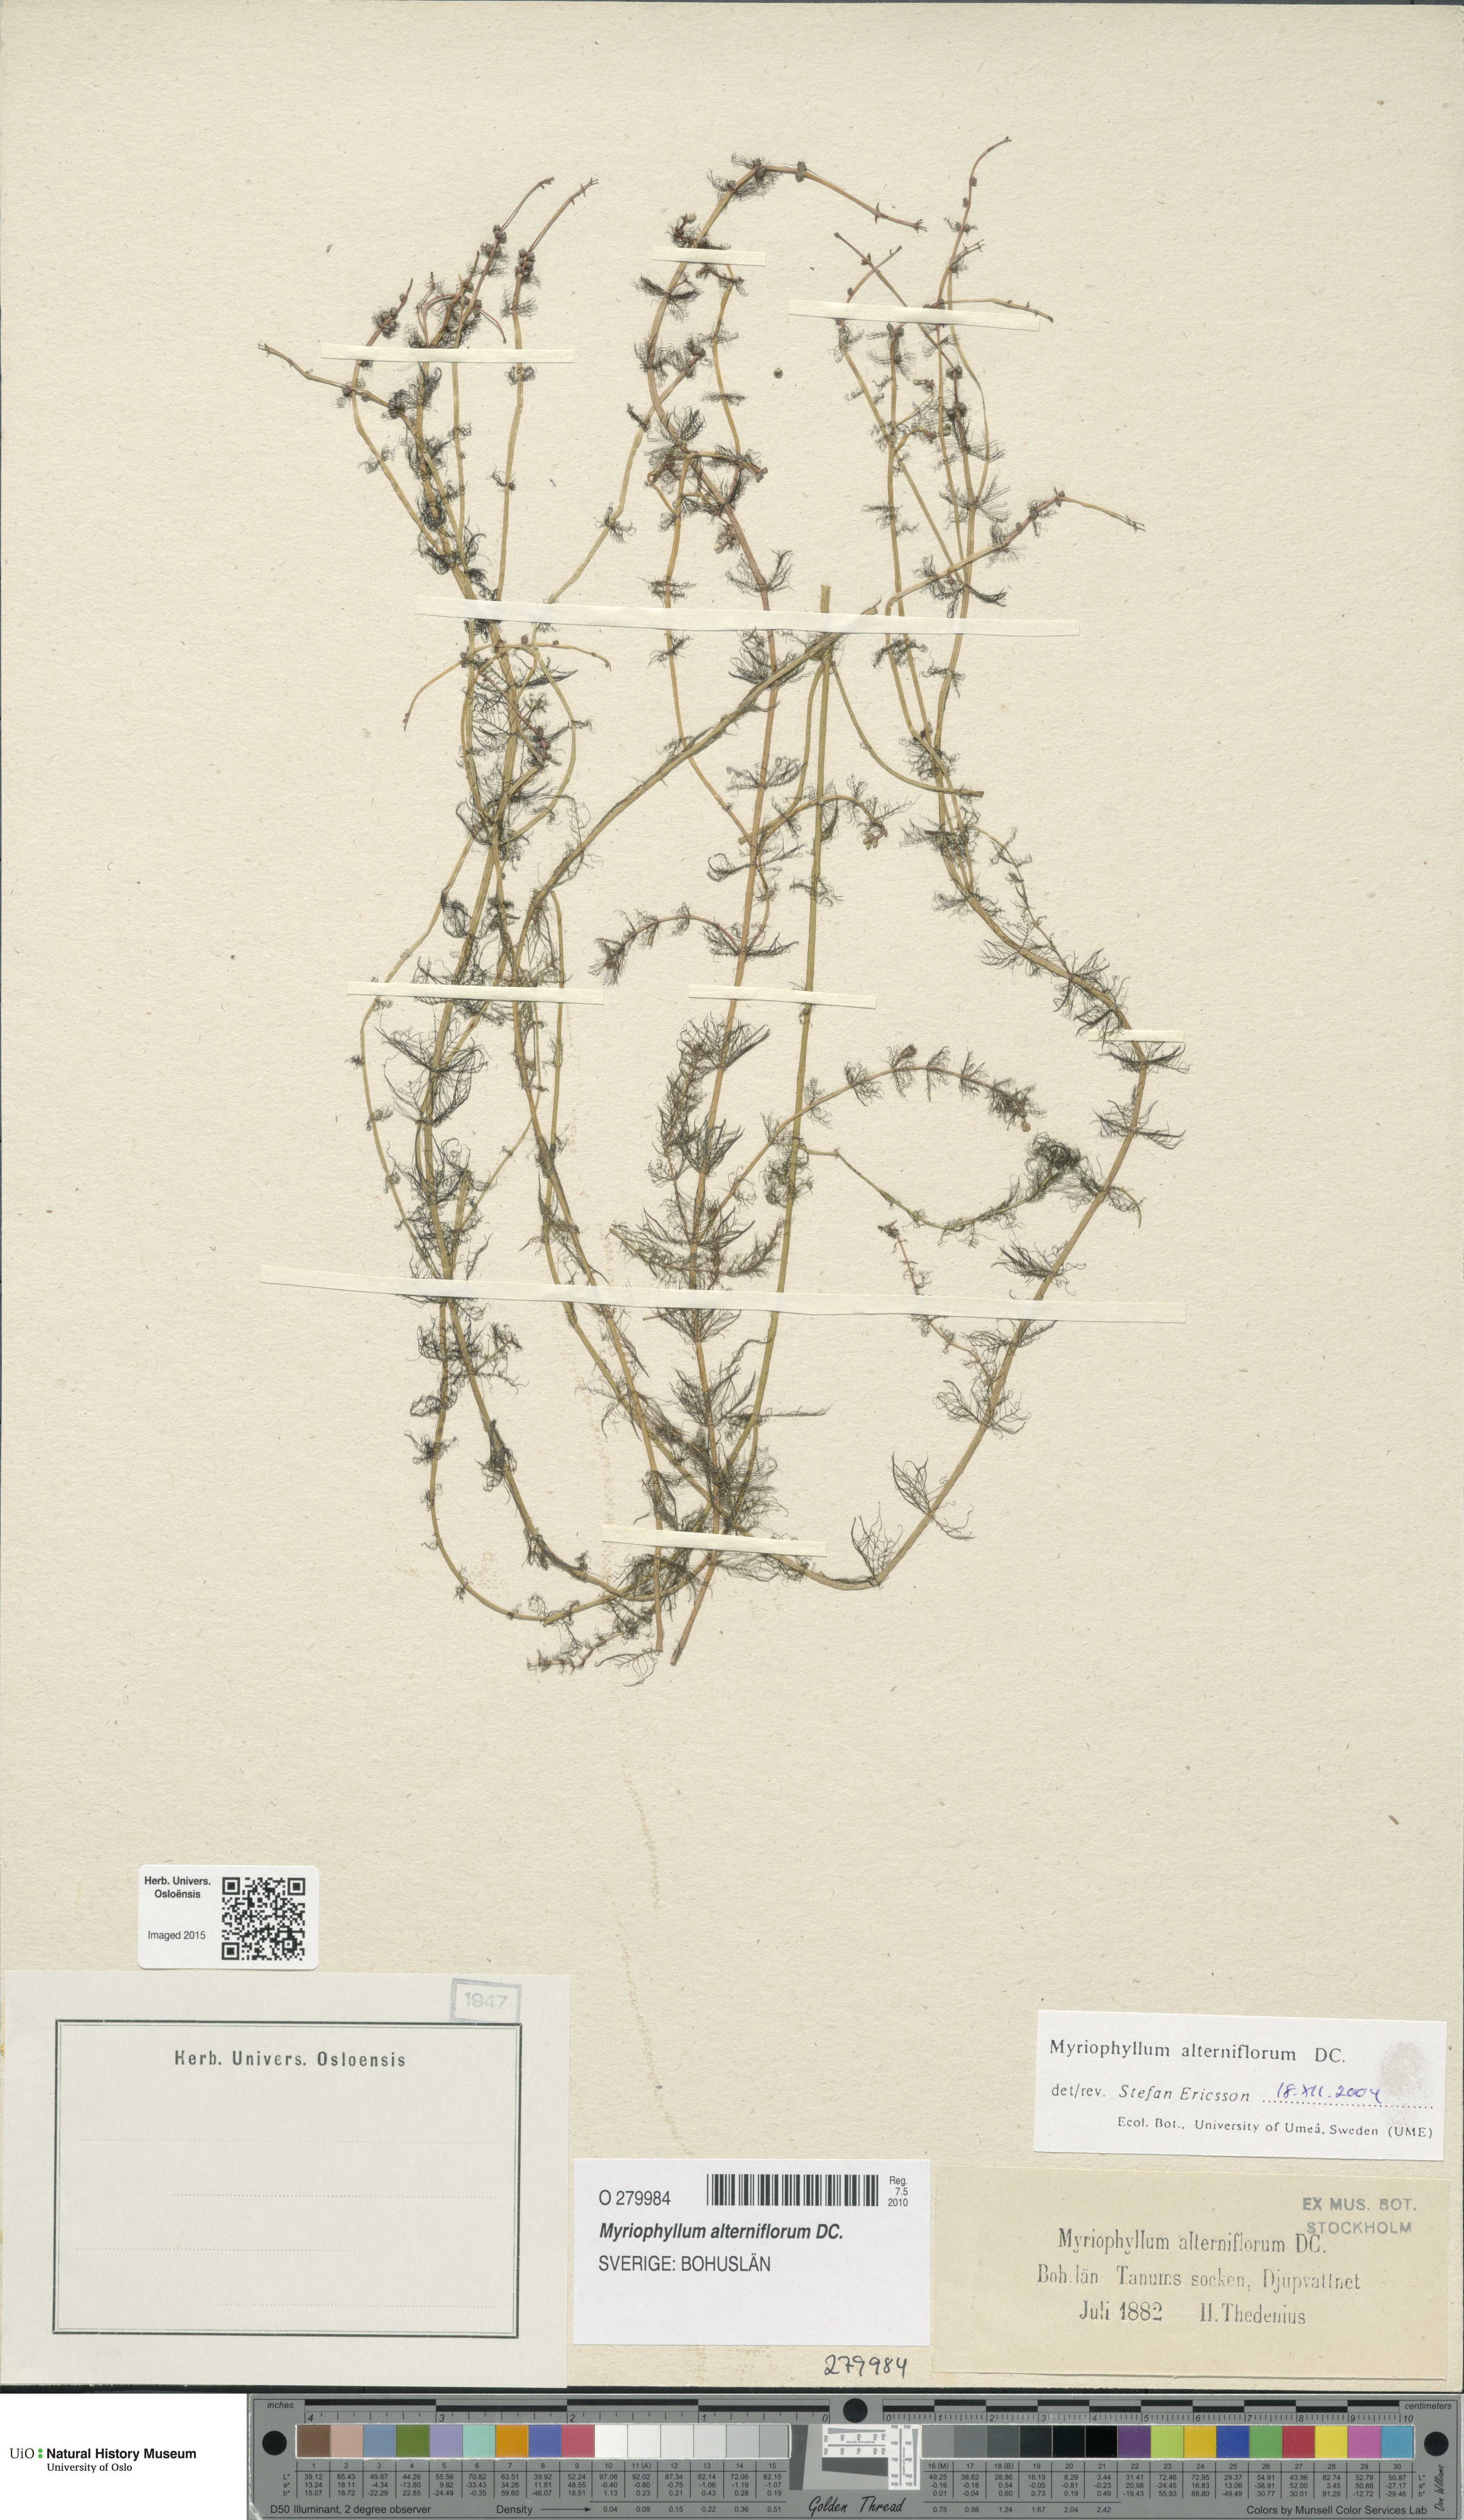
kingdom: Plantae
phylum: Tracheophyta
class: Magnoliopsida
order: Saxifragales
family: Haloragaceae
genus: Myriophyllum
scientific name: Myriophyllum alterniflorum
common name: Alternate water-milfoil
